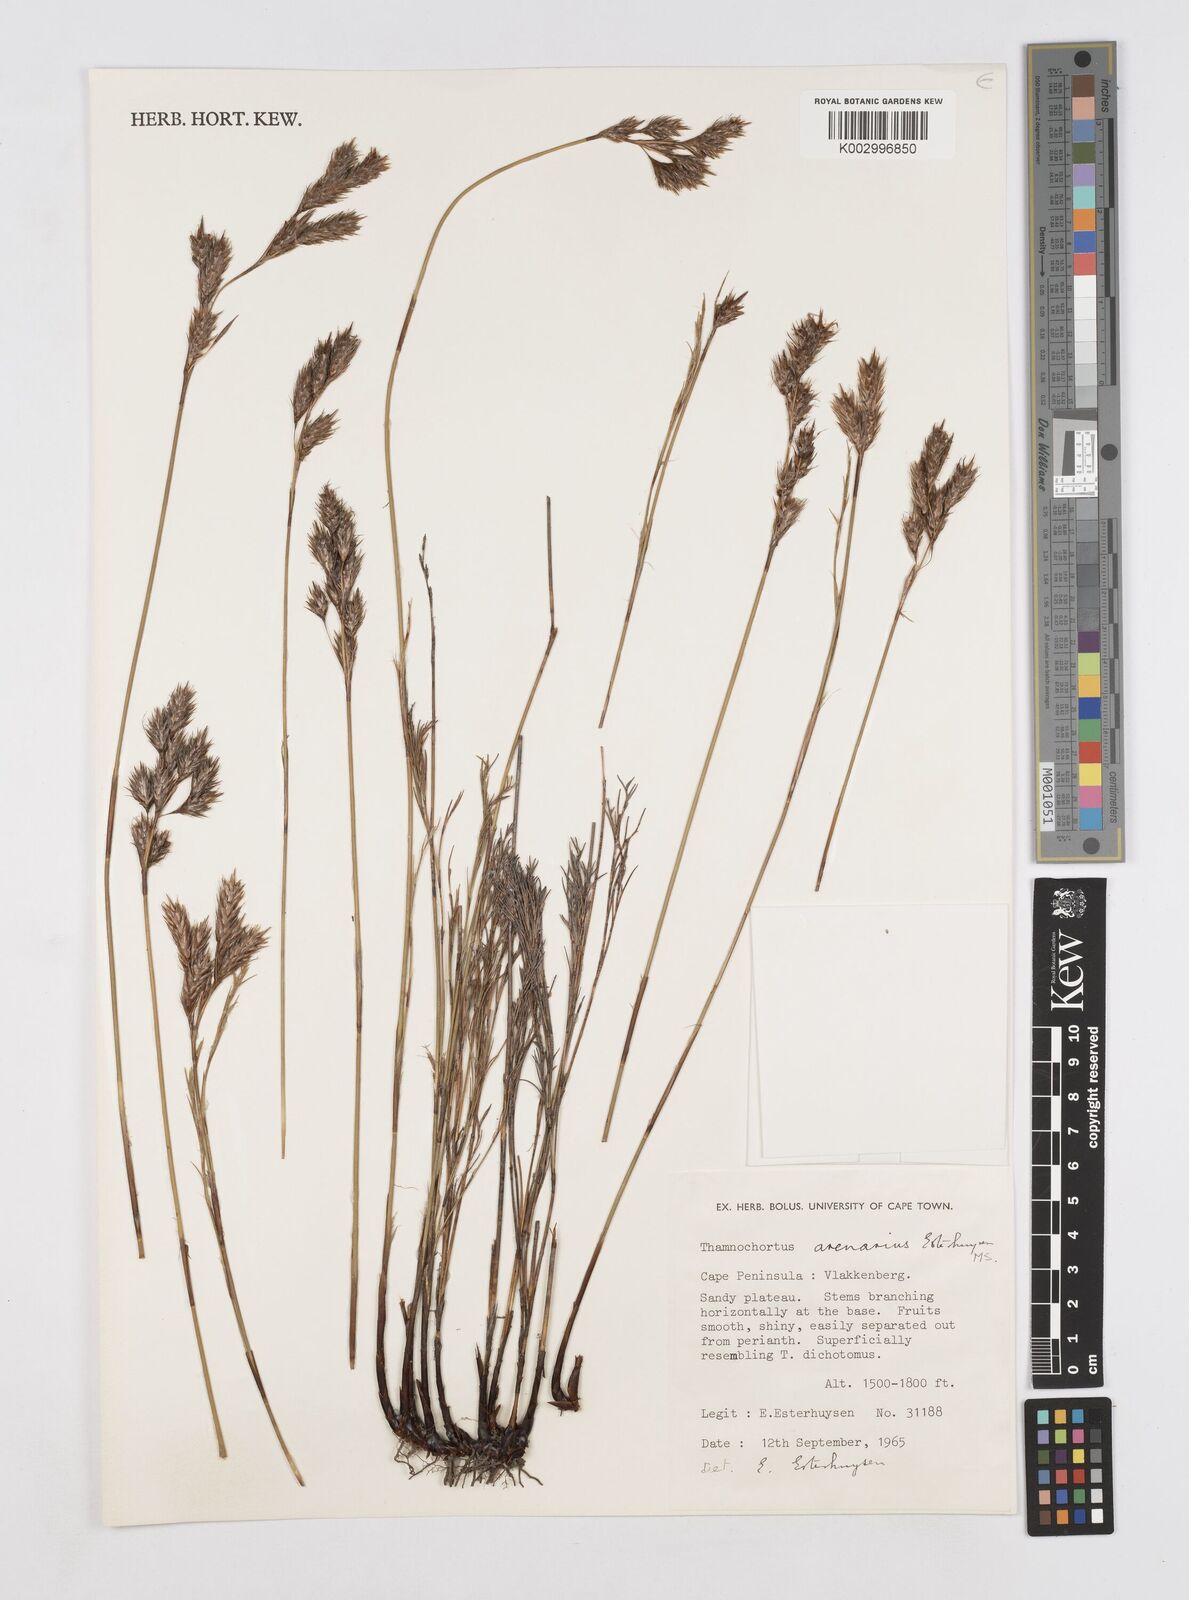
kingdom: Plantae
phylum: Tracheophyta
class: Liliopsida
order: Poales
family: Restionaceae
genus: Thamnochortus
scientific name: Thamnochortus arenarius
